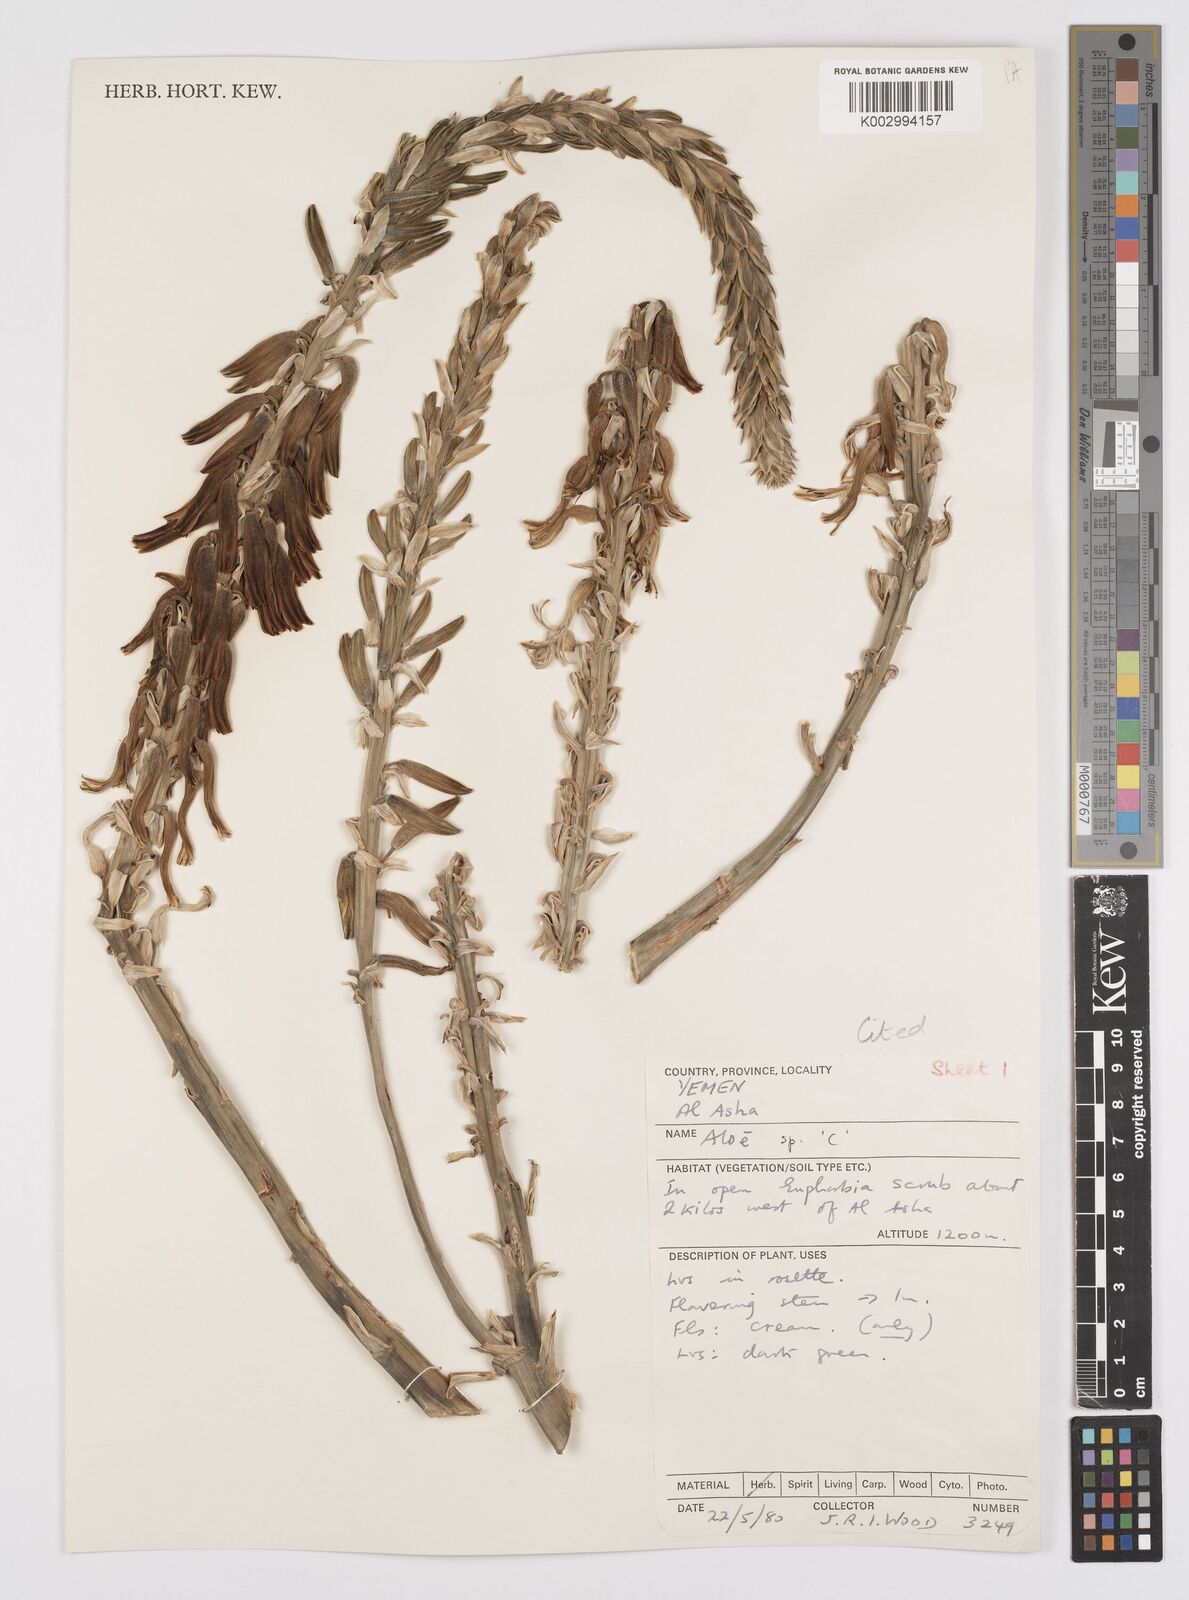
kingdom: Plantae
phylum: Tracheophyta
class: Liliopsida
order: Asparagales
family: Asphodelaceae
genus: Aloe
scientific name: Aloe
